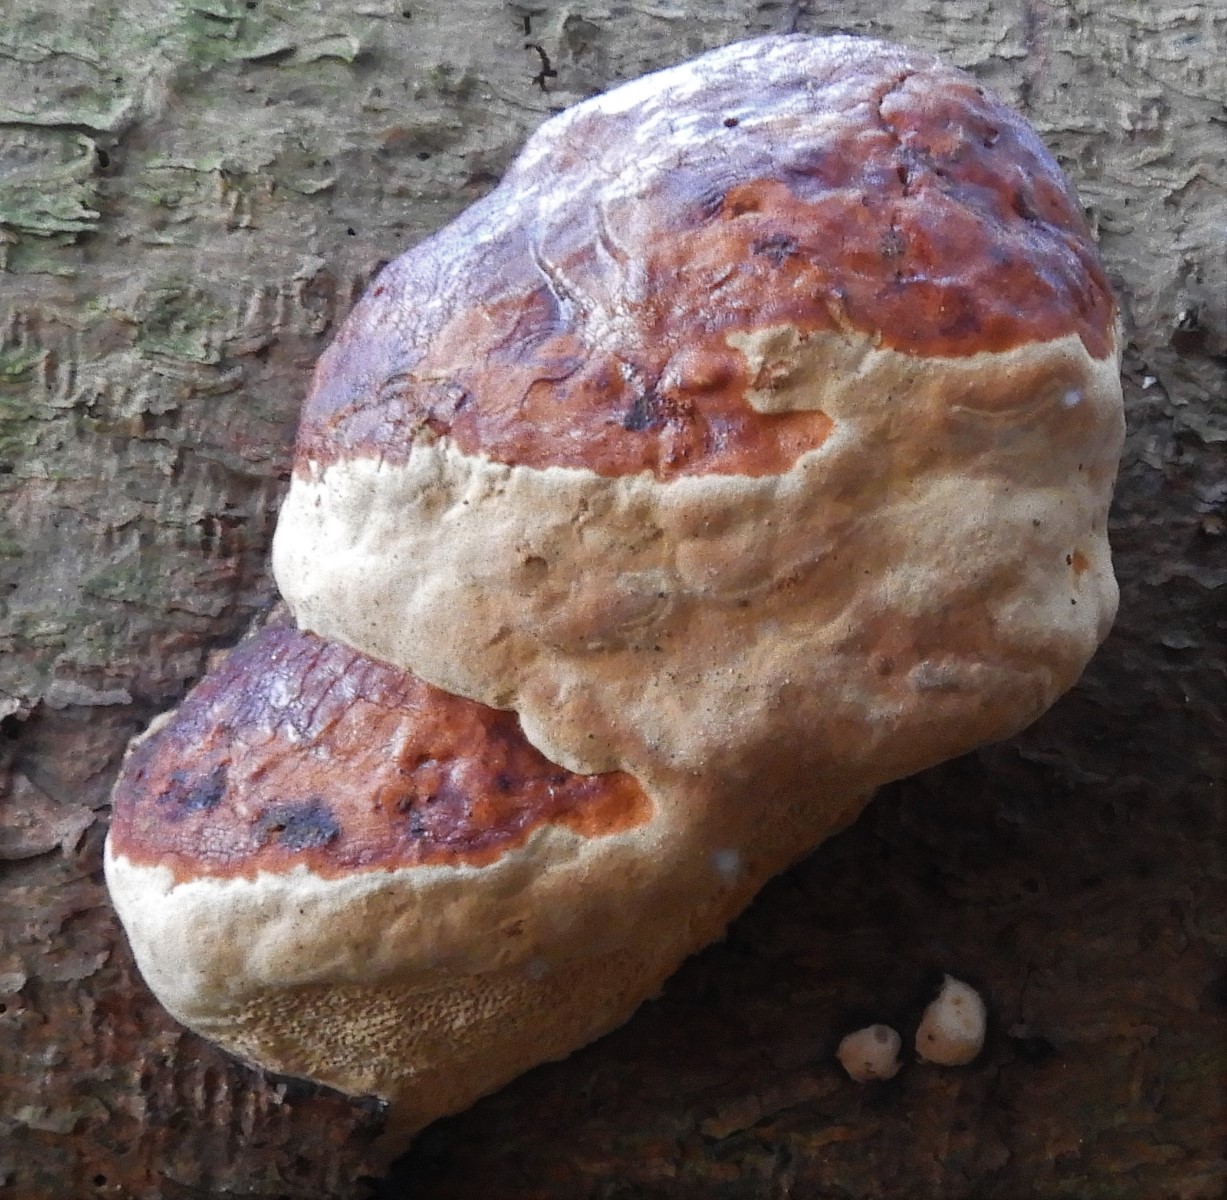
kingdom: Fungi
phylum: Basidiomycota
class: Agaricomycetes
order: Polyporales
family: Fomitopsidaceae
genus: Fomitopsis
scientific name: Fomitopsis pinicola
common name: randbæltet hovporesvamp
